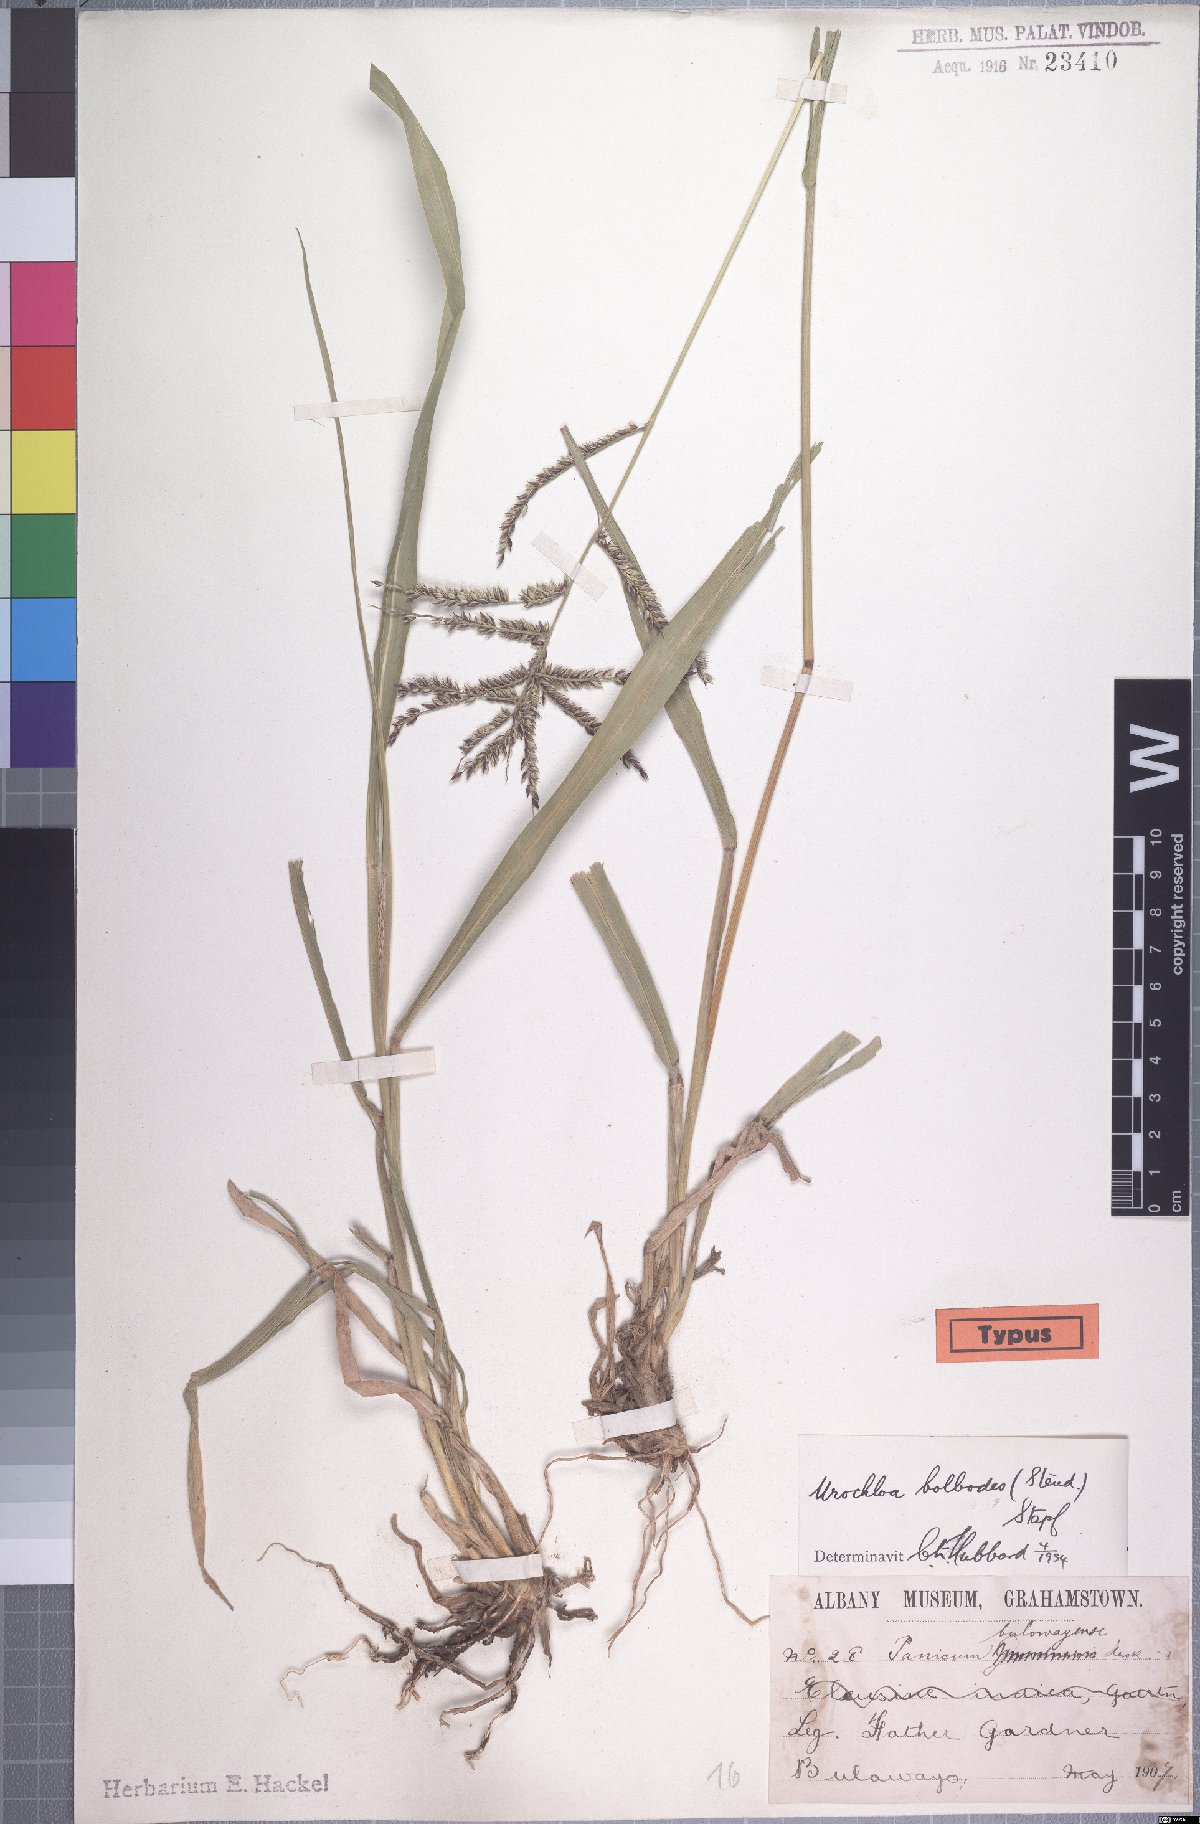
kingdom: Plantae
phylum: Tracheophyta
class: Liliopsida
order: Poales
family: Poaceae
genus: Urochloa
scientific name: Urochloa oligotricha
